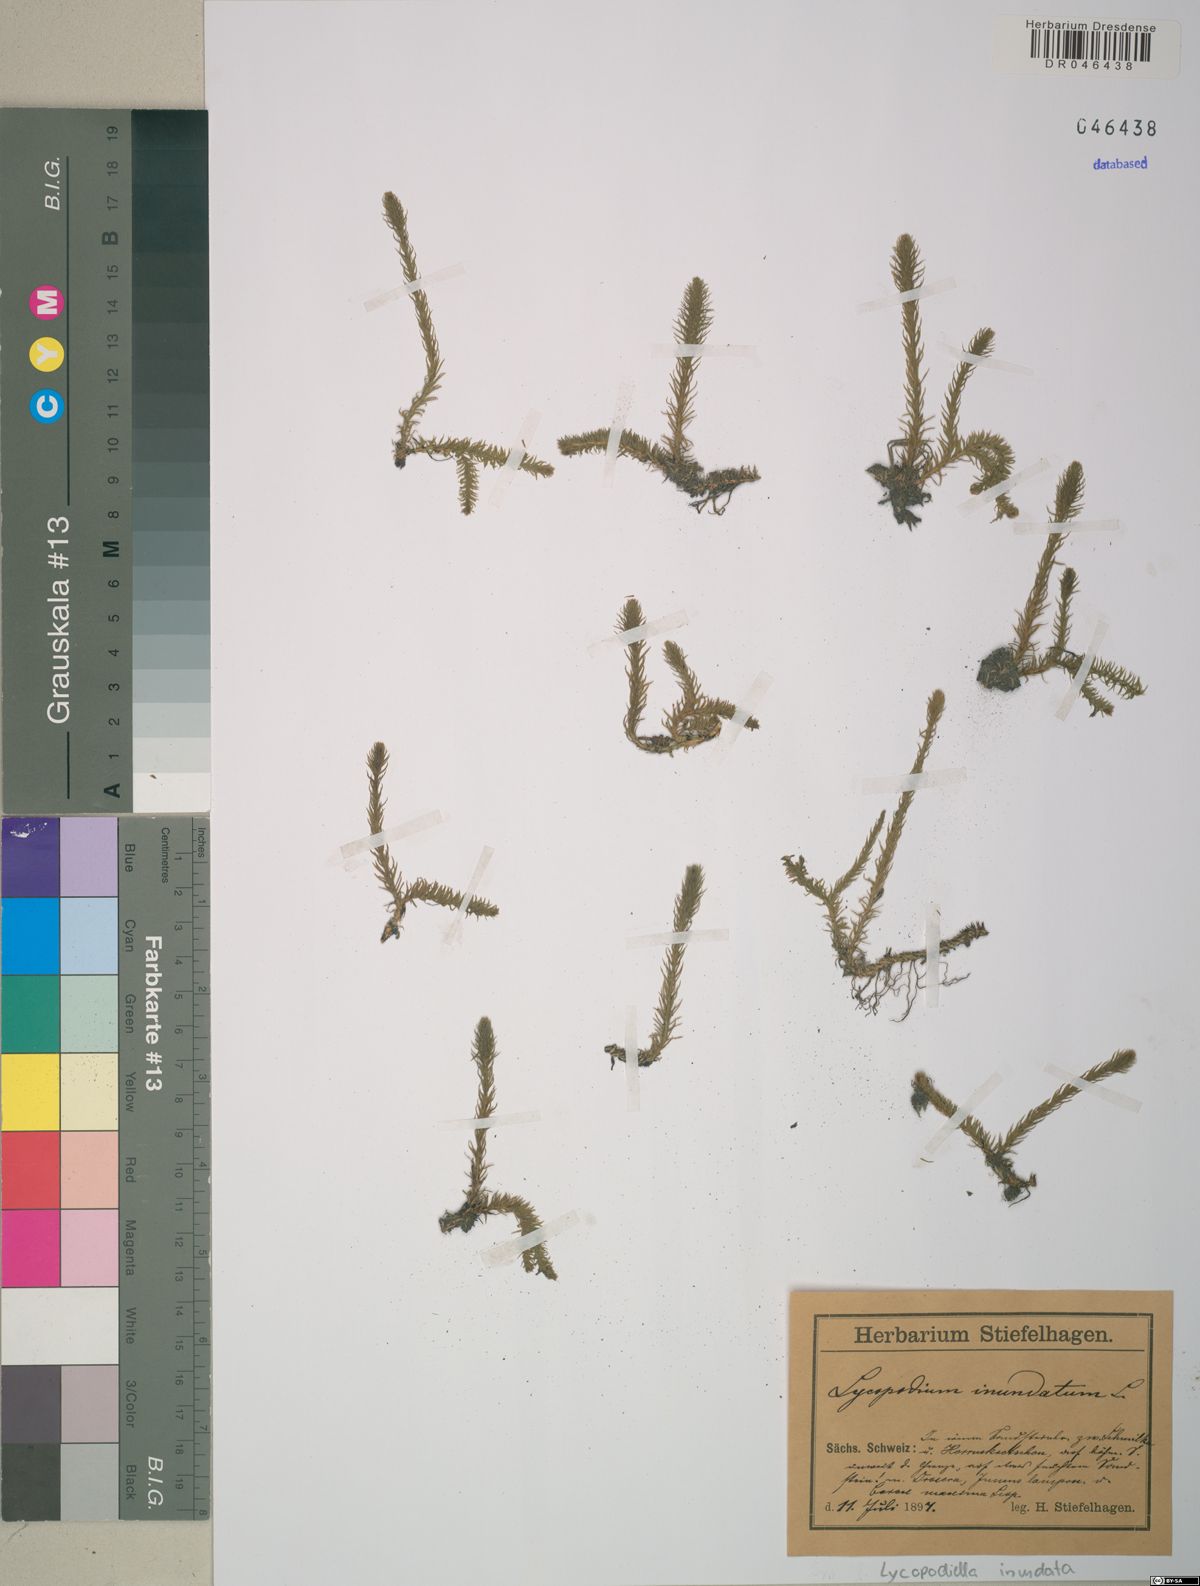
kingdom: Plantae
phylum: Tracheophyta
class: Lycopodiopsida
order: Lycopodiales
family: Lycopodiaceae
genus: Lycopodiella
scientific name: Lycopodiella inundata
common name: Marsh clubmoss
